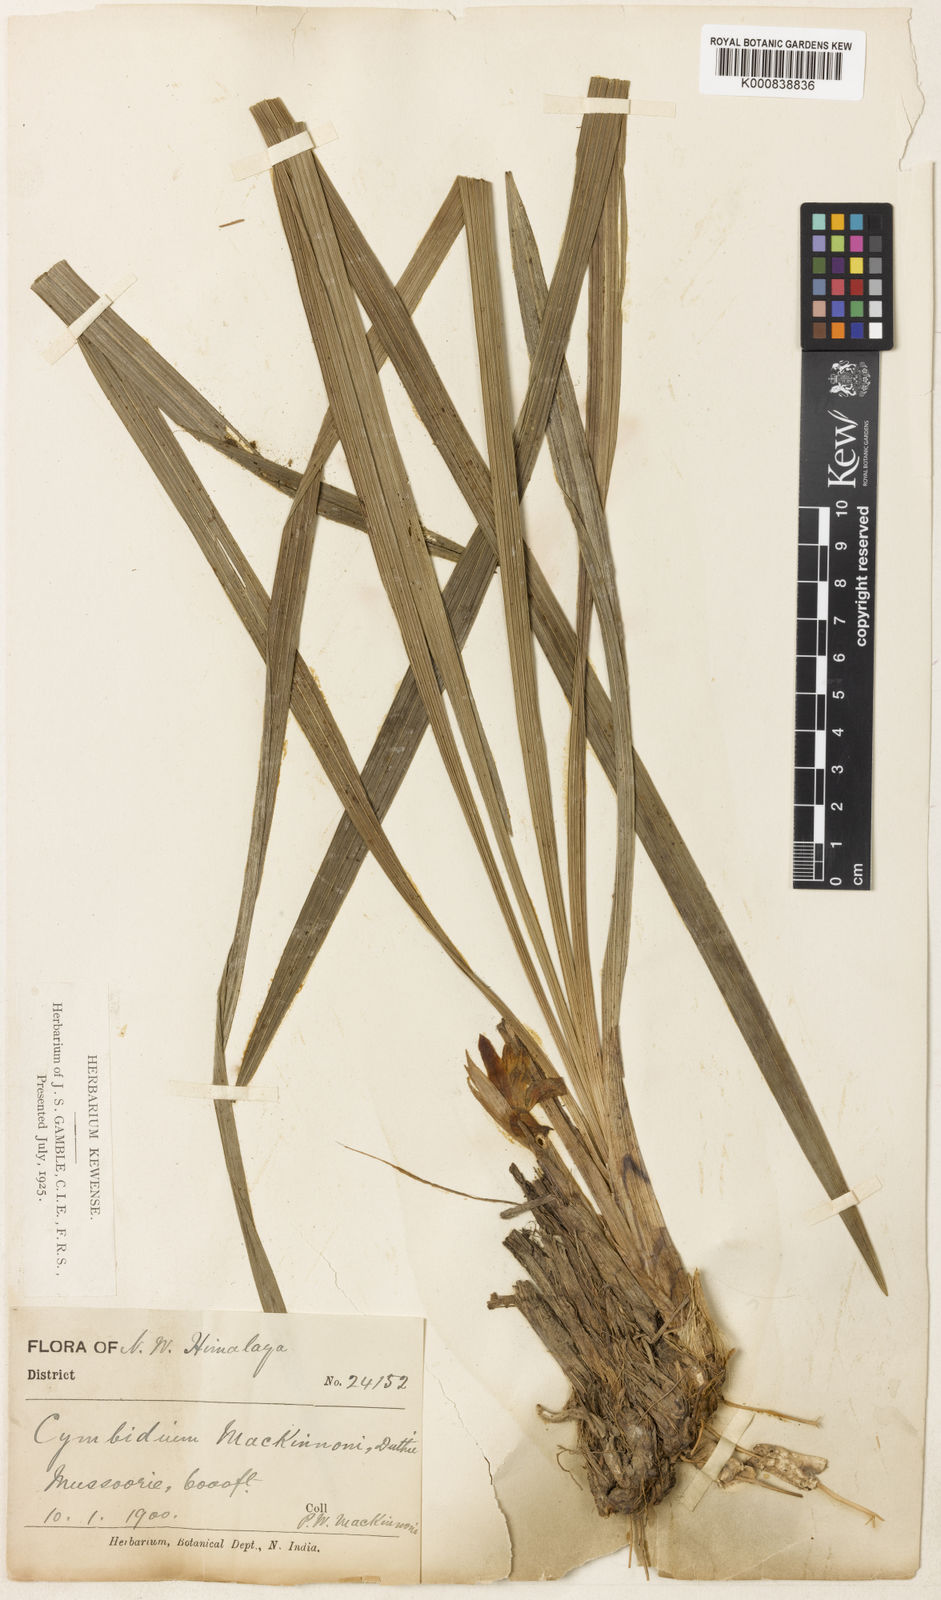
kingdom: Plantae
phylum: Tracheophyta
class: Liliopsida
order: Asparagales
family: Orchidaceae
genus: Cymbidium
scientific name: Cymbidium goeringii
